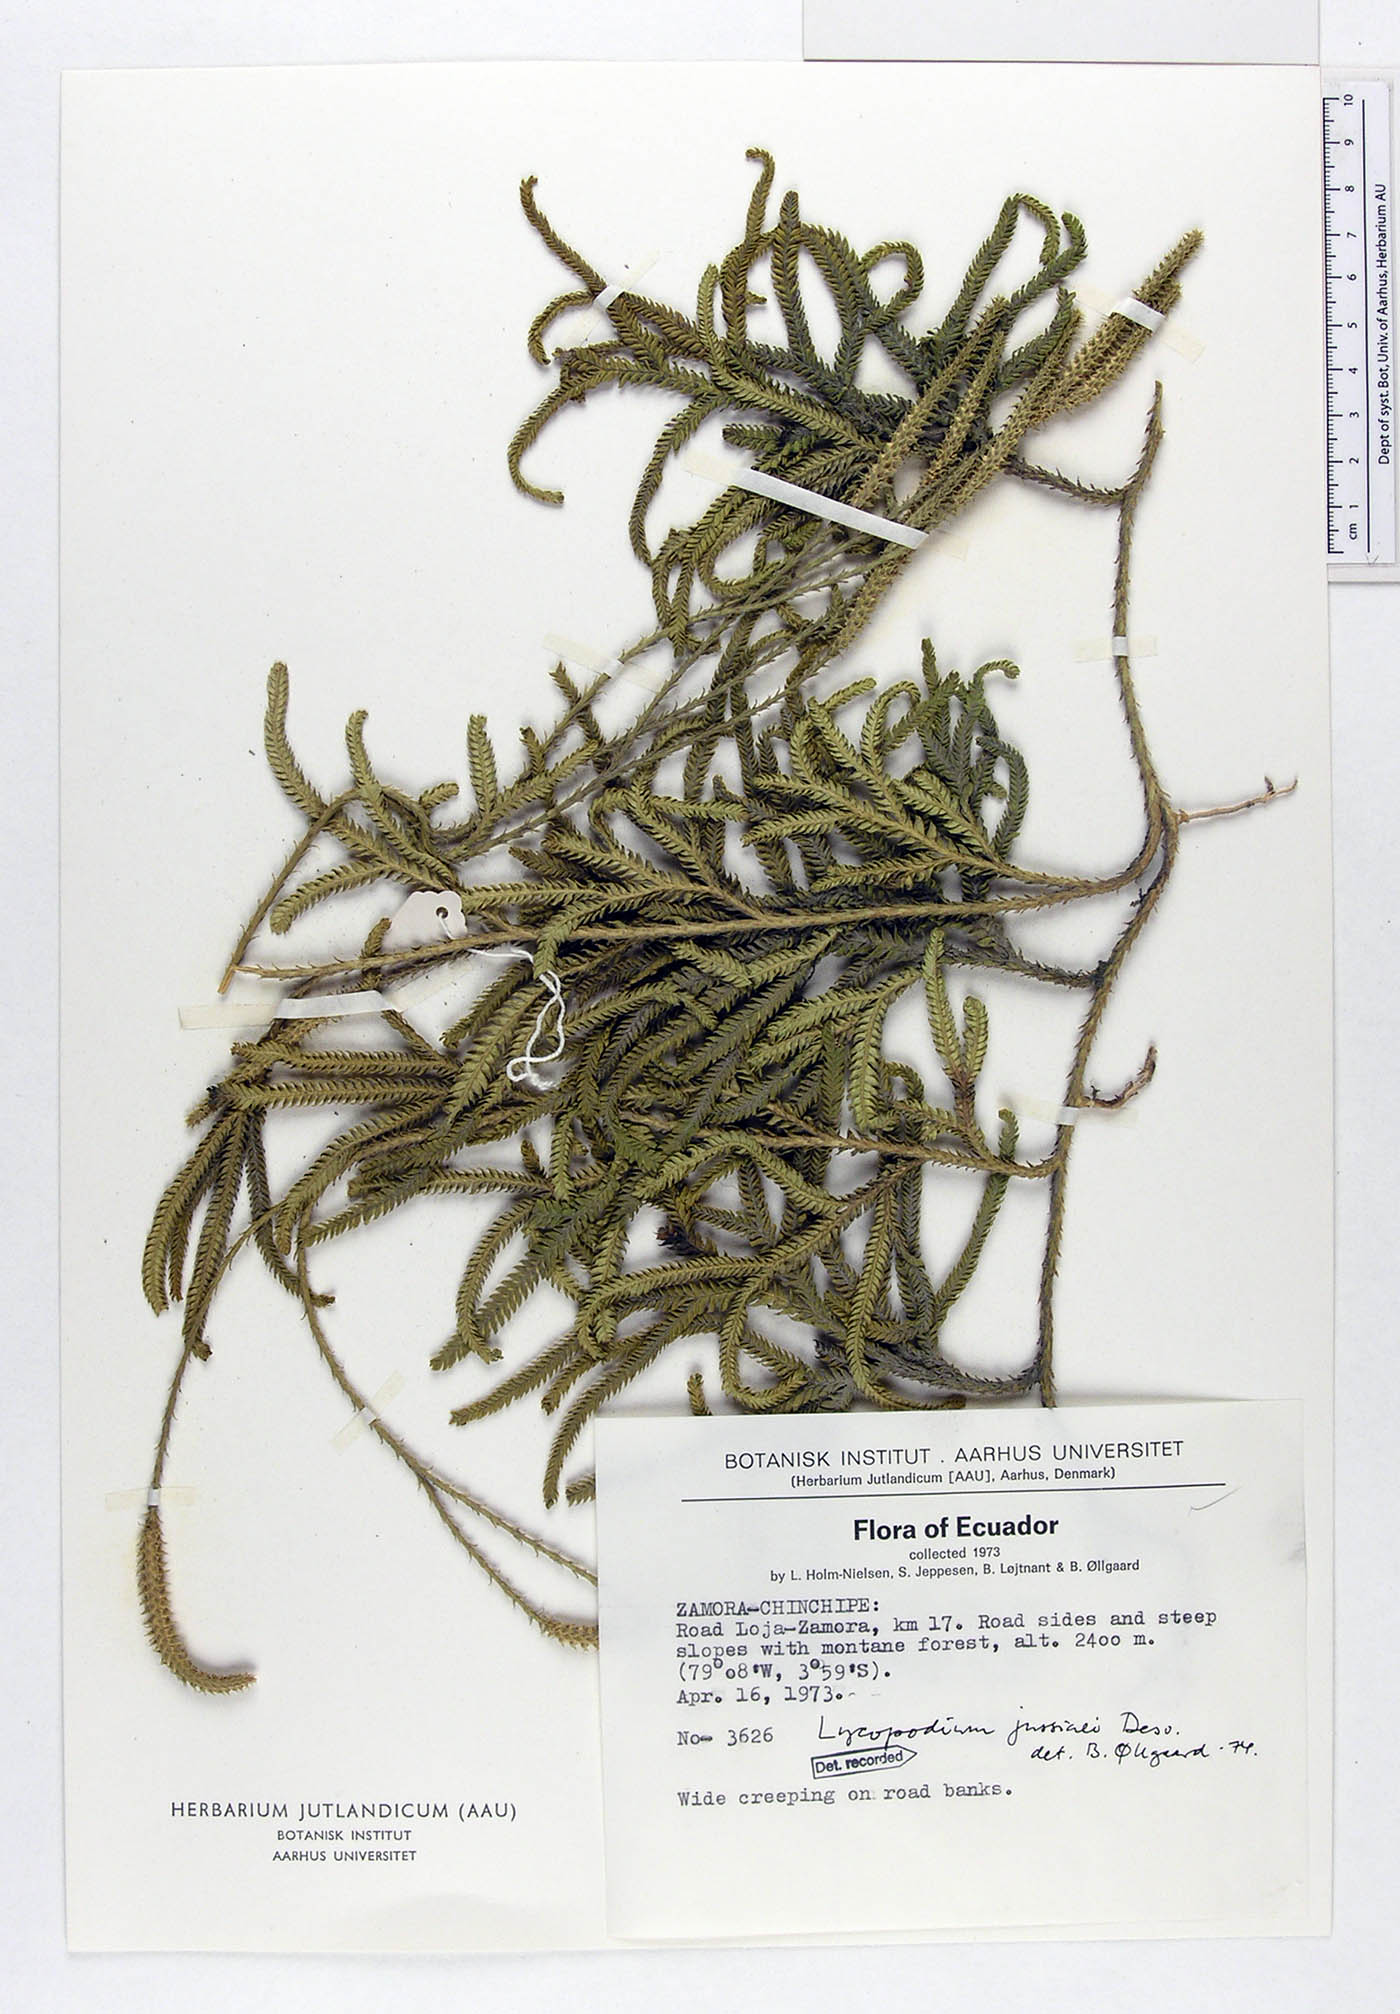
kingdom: Plantae
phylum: Tracheophyta
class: Lycopodiopsida
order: Lycopodiales
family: Lycopodiaceae
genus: Diphasium
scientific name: Diphasium jussiaei
